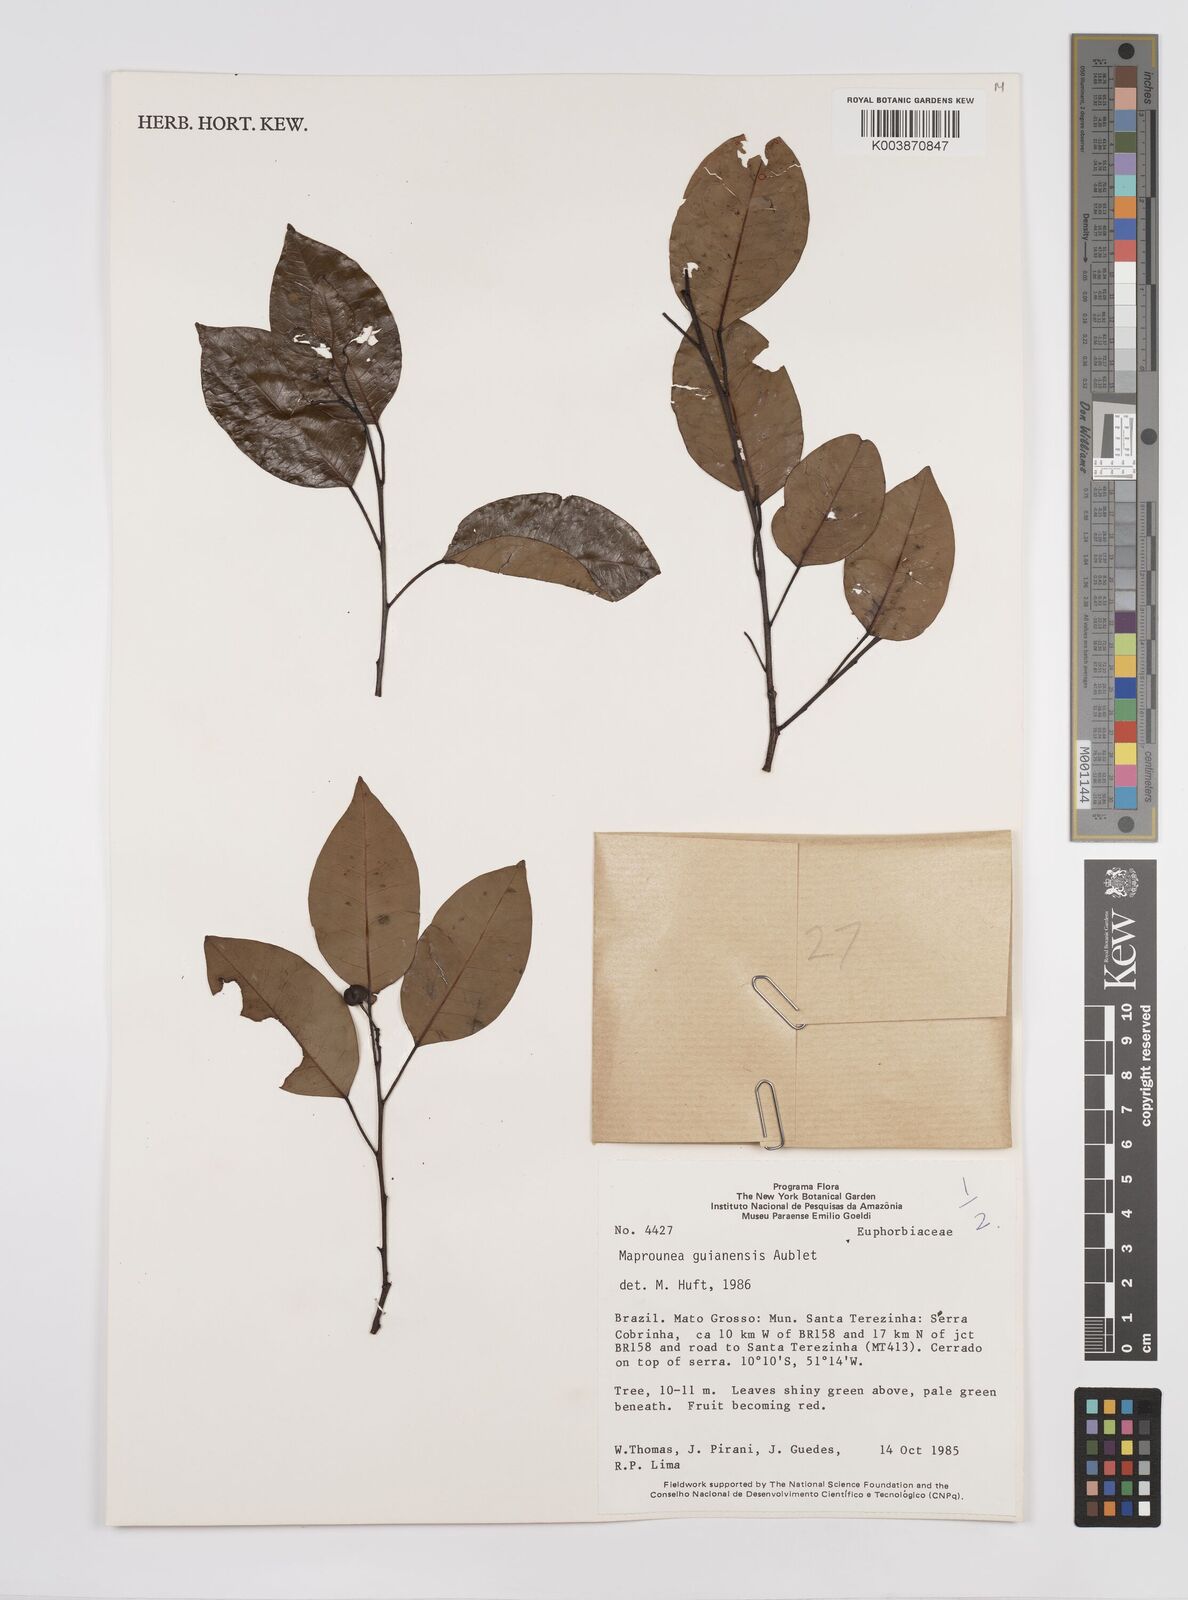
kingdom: Plantae
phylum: Tracheophyta
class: Magnoliopsida
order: Malpighiales
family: Euphorbiaceae
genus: Maprounea
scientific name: Maprounea guianensis
